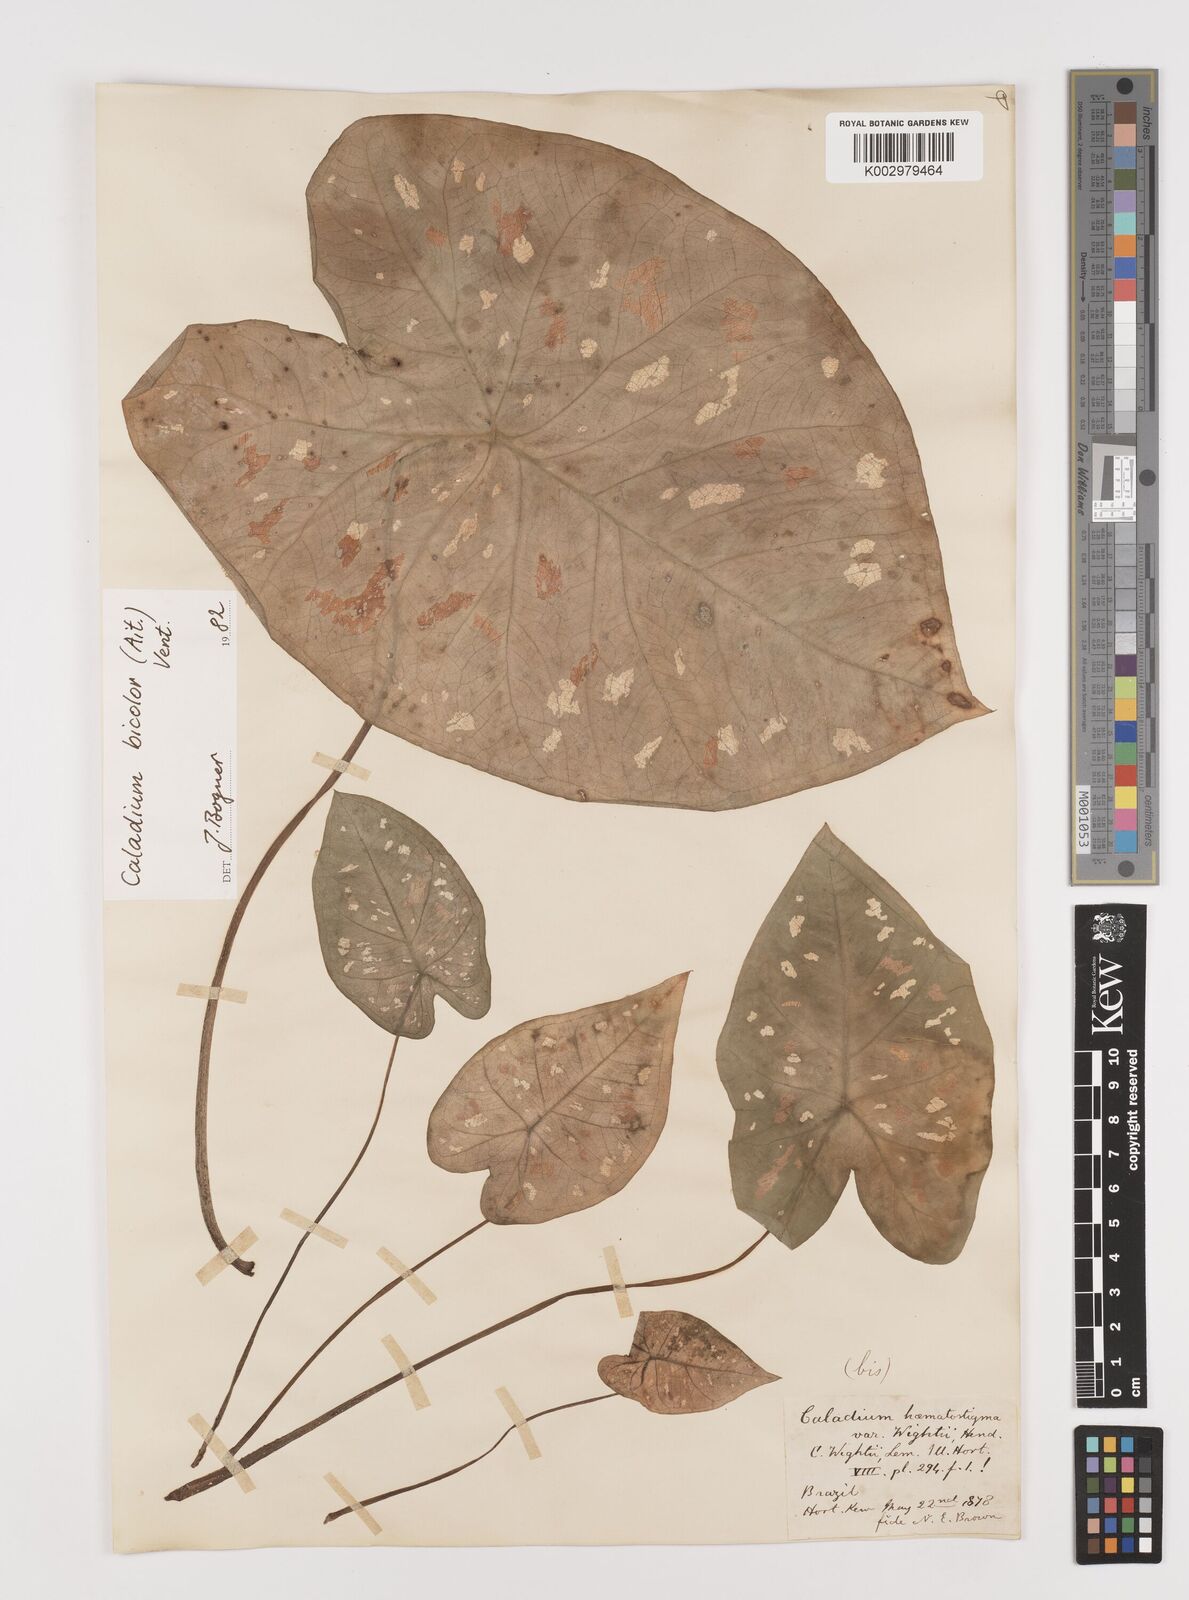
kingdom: Plantae
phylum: Tracheophyta
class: Liliopsida
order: Alismatales
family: Araceae
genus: Caladium
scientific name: Caladium bicolor
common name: Artist's pallet
